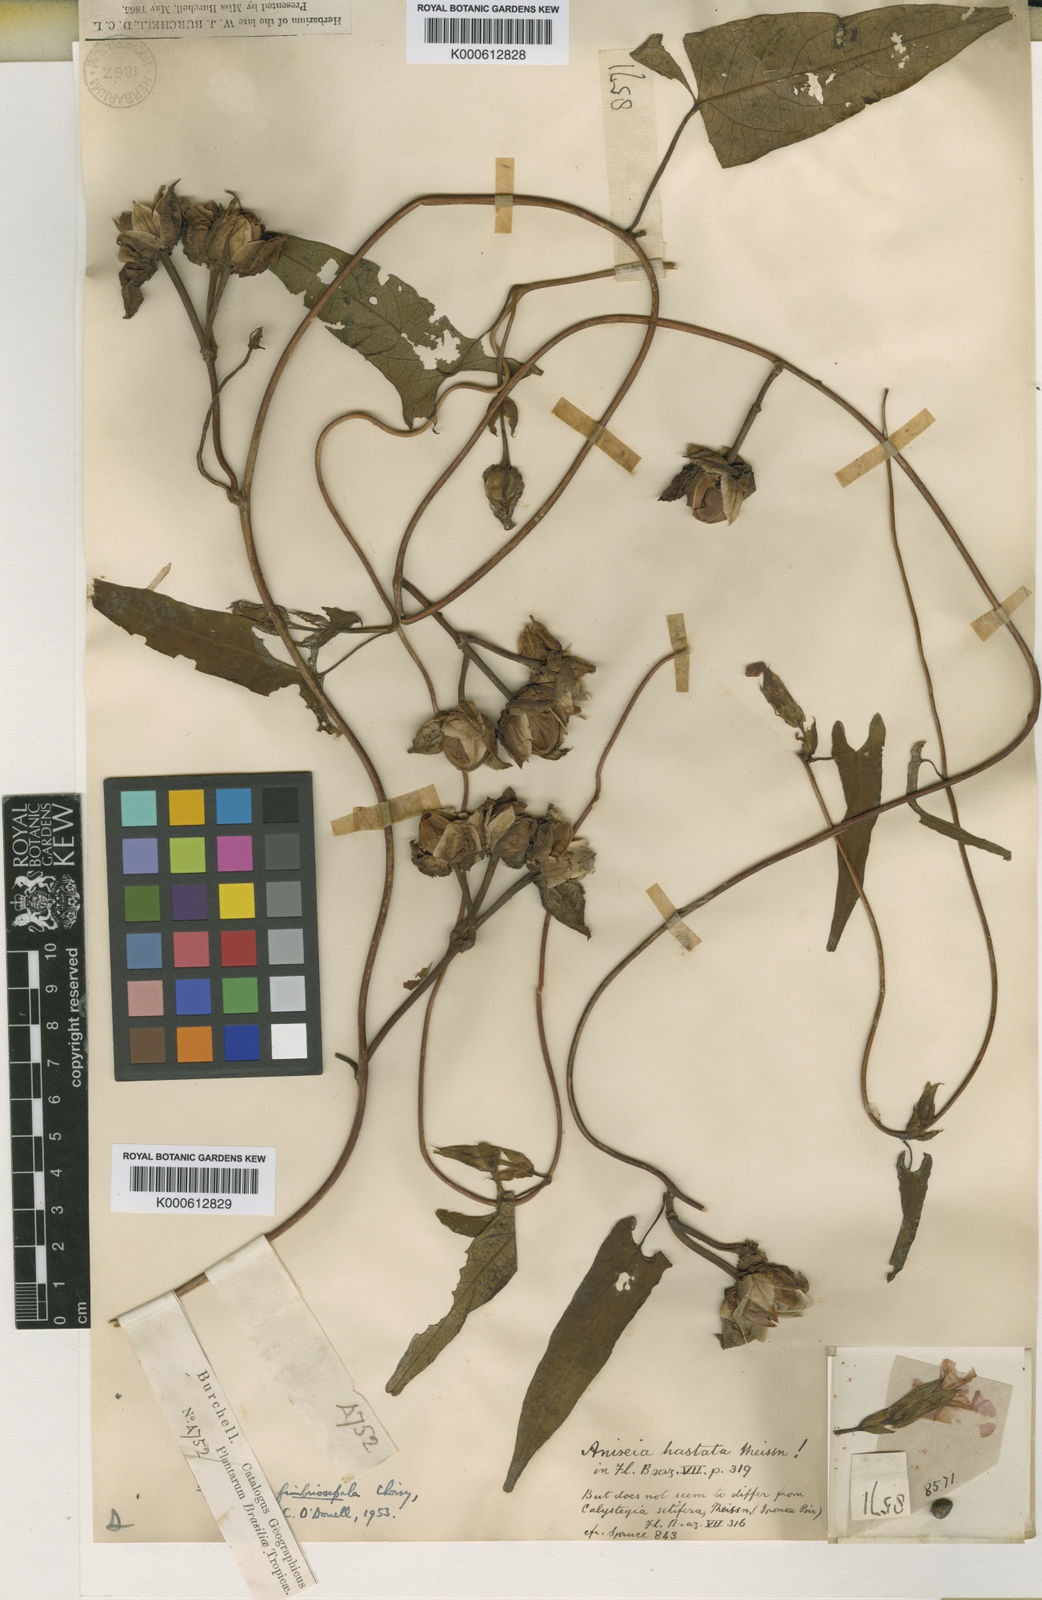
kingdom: Plantae
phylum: Tracheophyta
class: Magnoliopsida
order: Solanales
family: Convolvulaceae
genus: Ipomoea
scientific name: Ipomoea fimbriosepala
